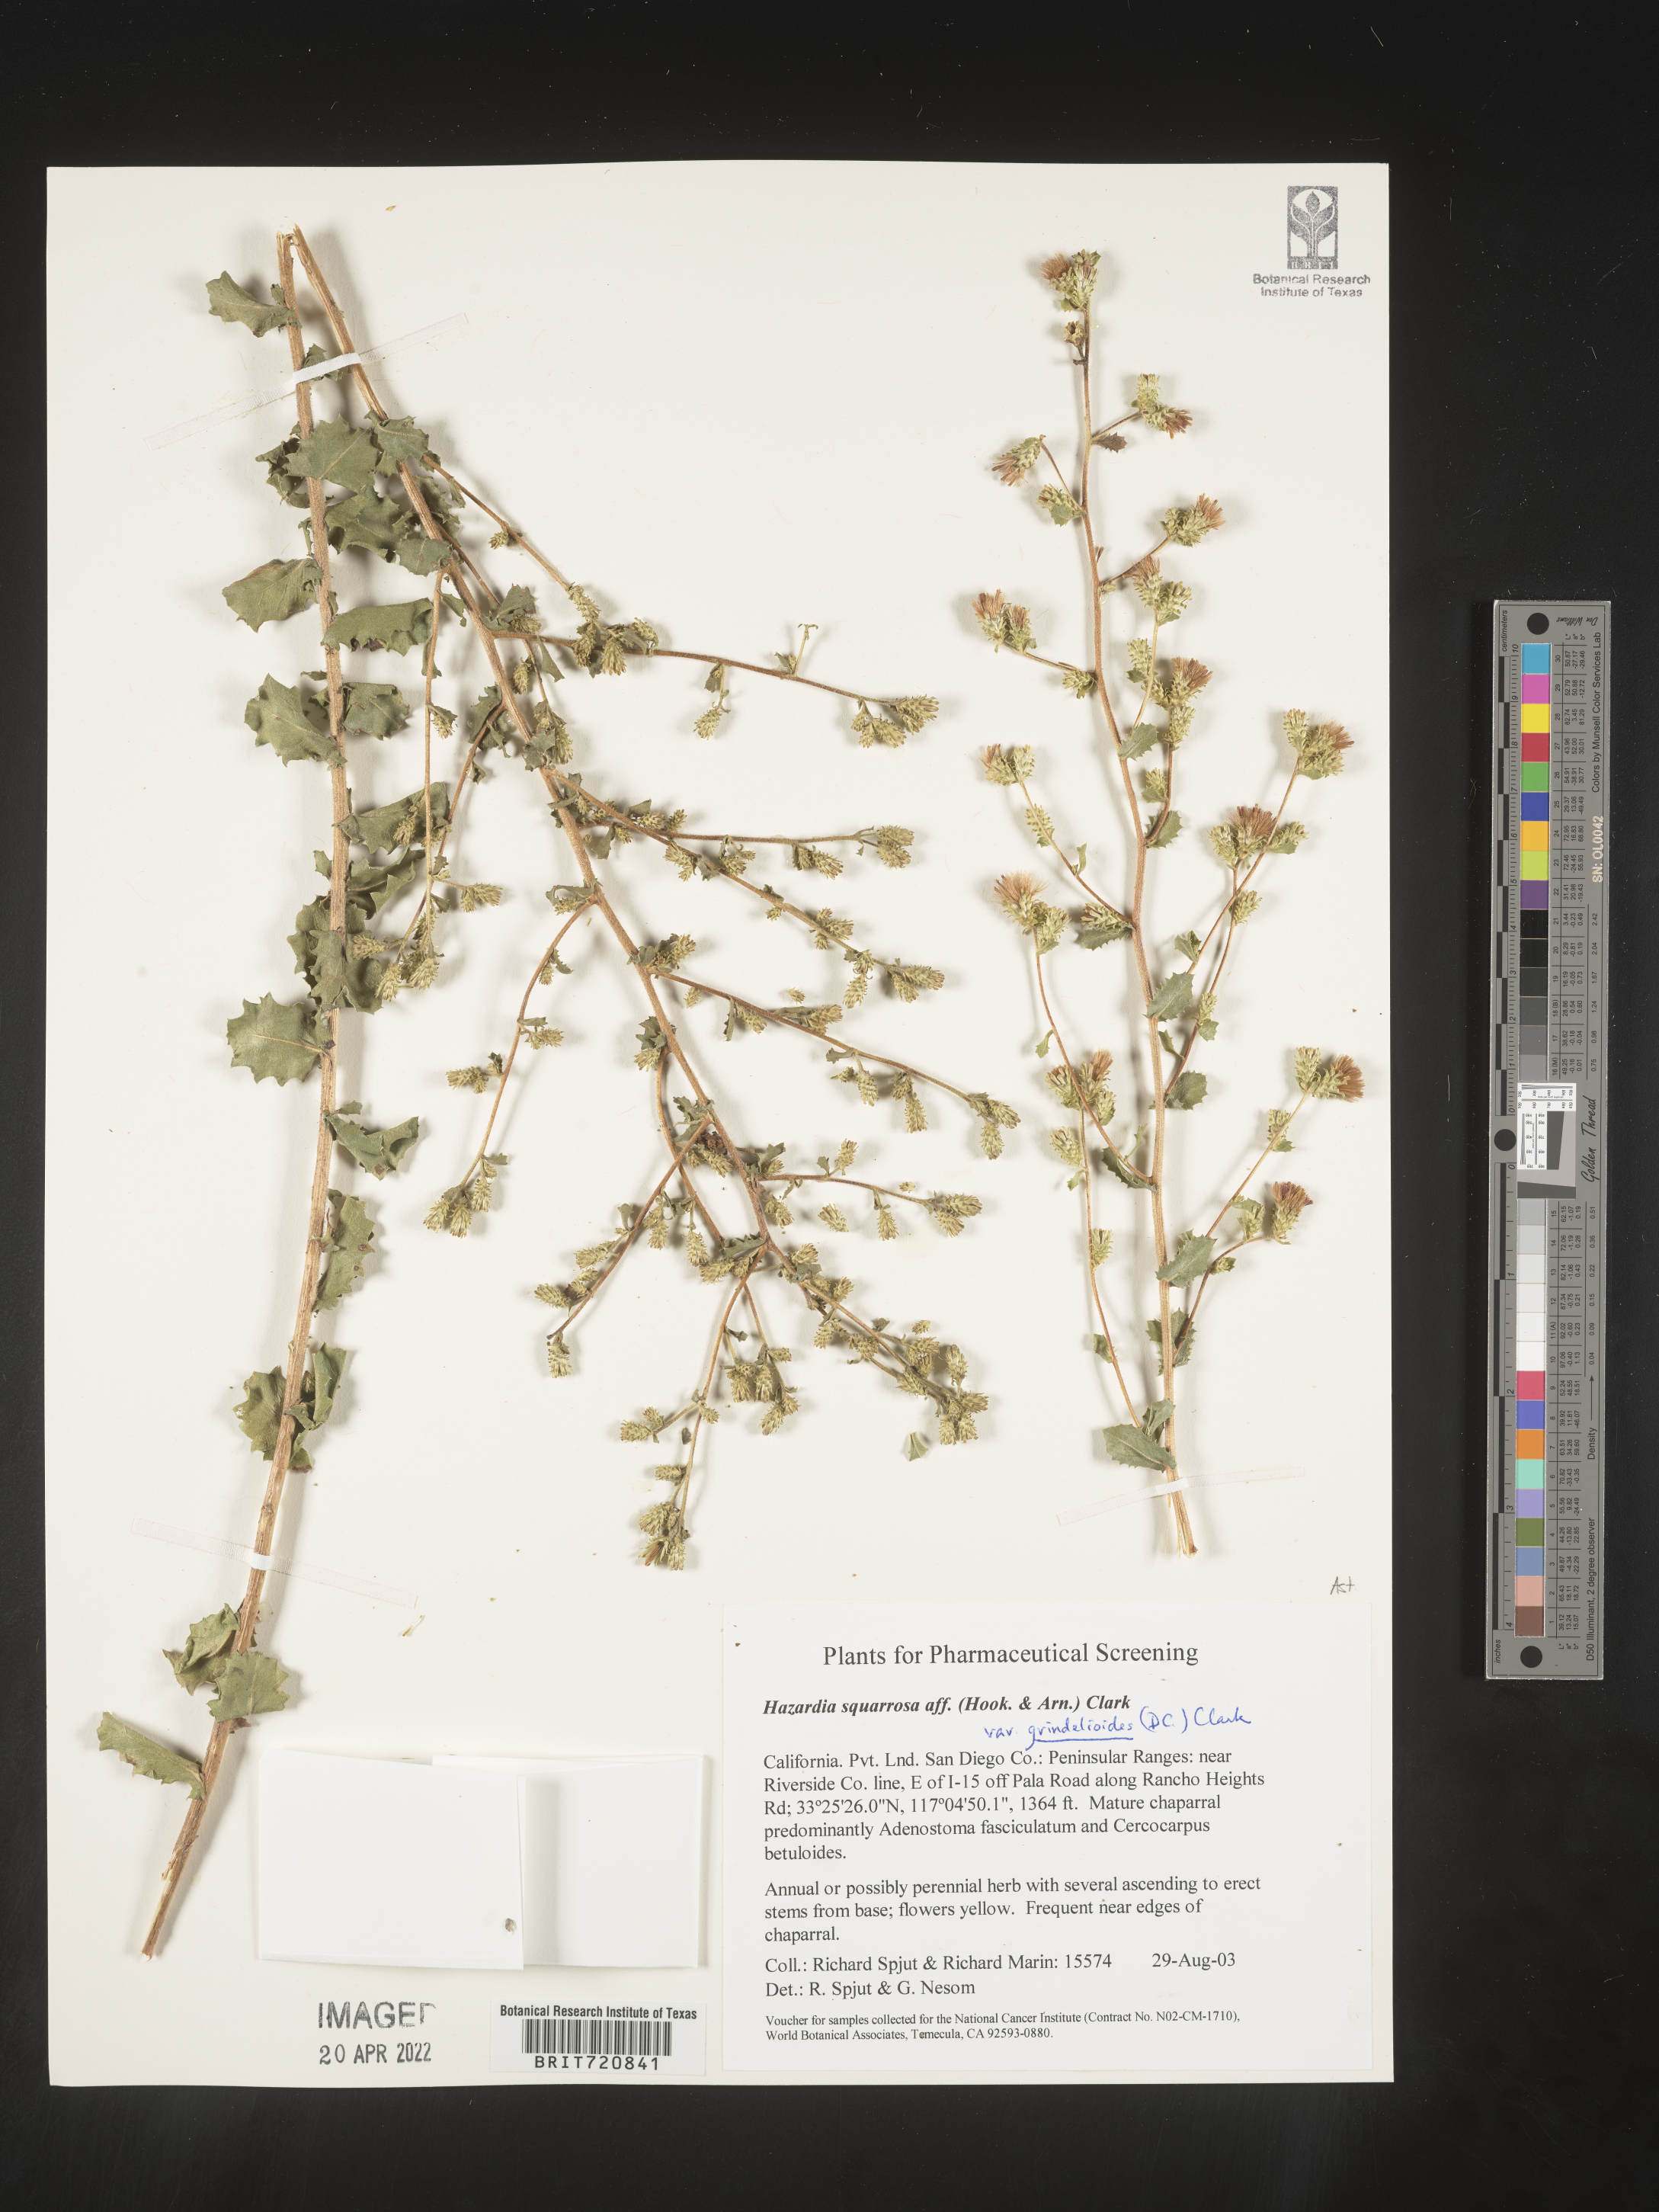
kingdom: Plantae
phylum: Tracheophyta
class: Magnoliopsida
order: Asterales
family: Asteraceae
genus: Hazardia
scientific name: Hazardia squarrosa
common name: Saw-tooth goldenbush
